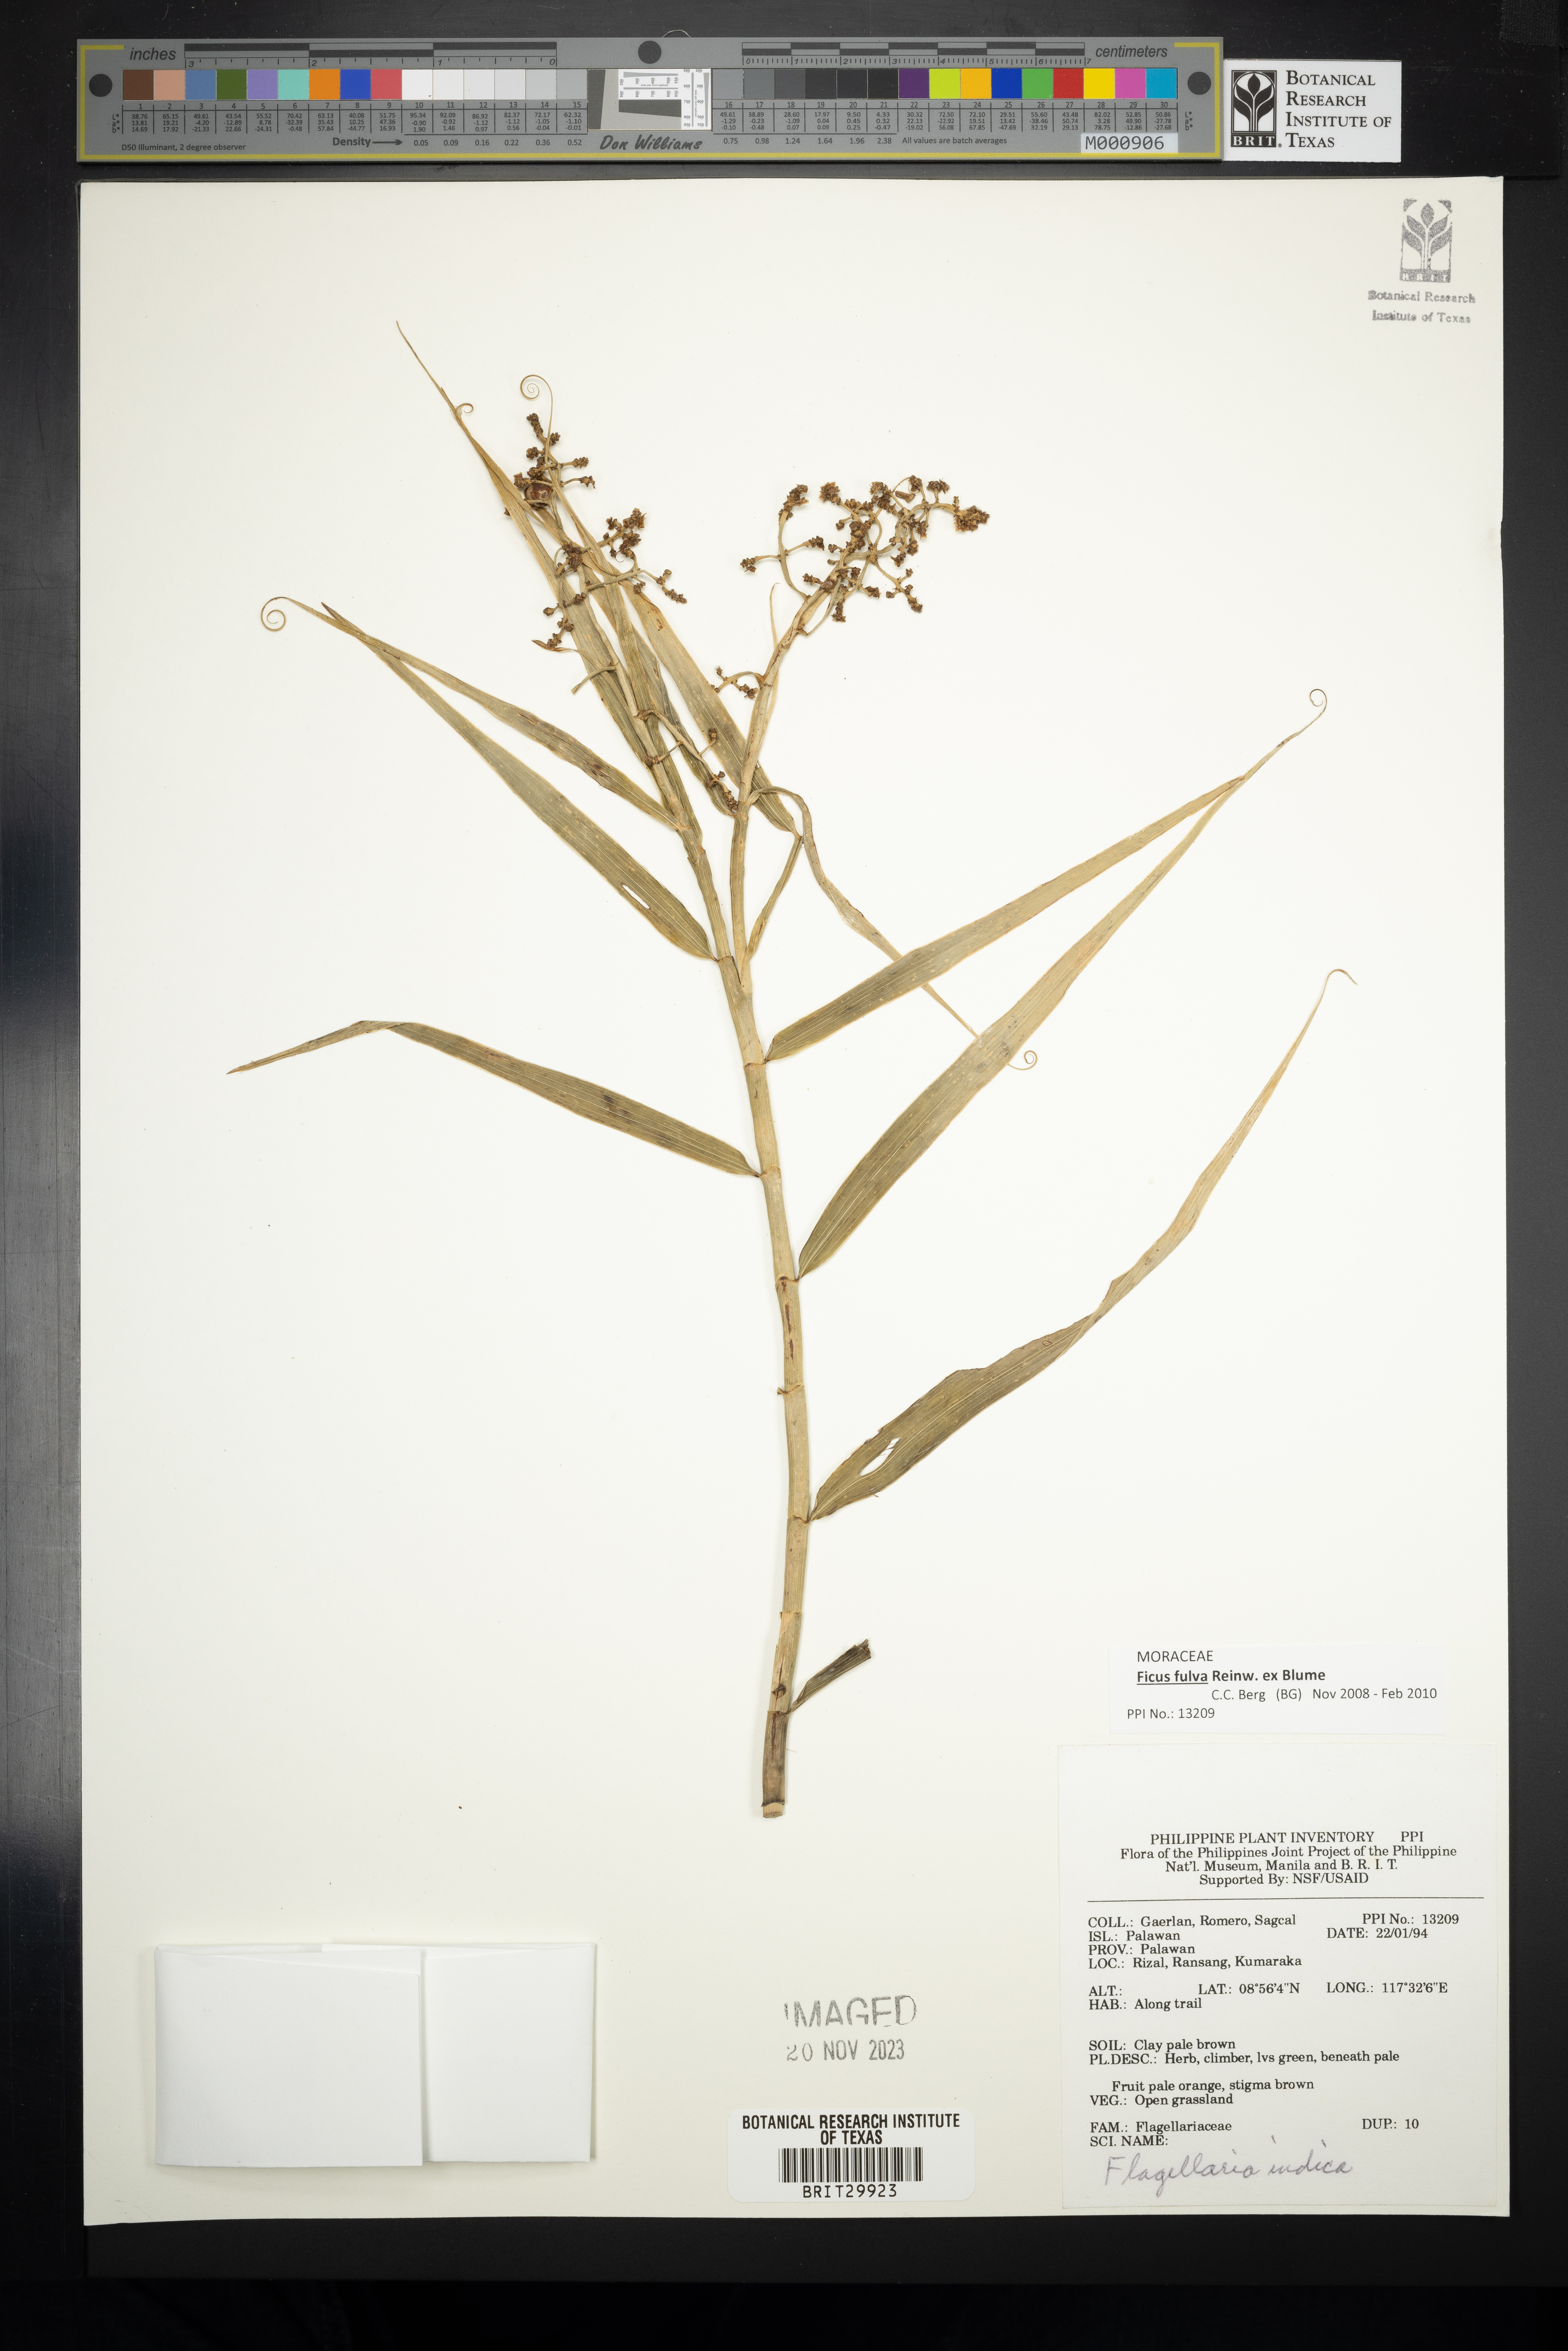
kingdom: Plantae
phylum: Tracheophyta
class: Liliopsida
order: Poales
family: Flagellariaceae
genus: Flagellaria
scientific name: Flagellaria indica
